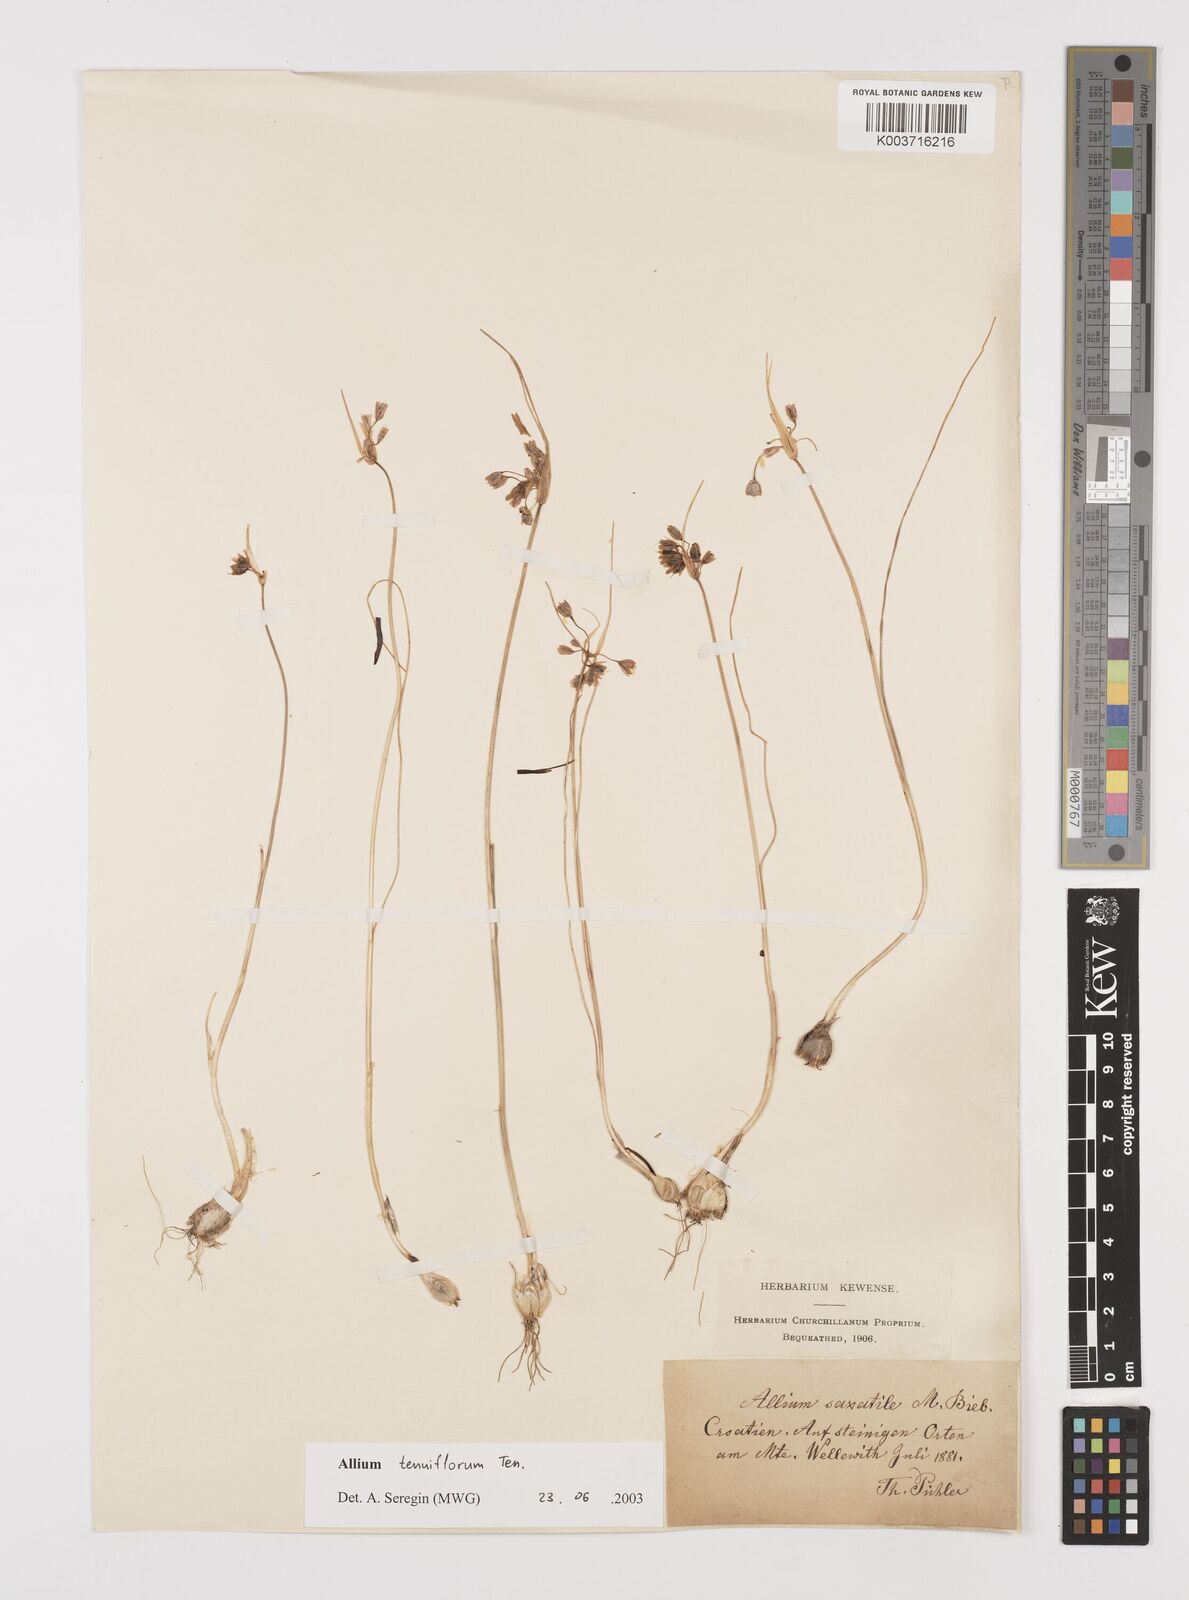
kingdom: Plantae
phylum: Tracheophyta
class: Liliopsida
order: Asparagales
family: Amaryllidaceae
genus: Allium
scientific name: Allium tenuiflorum
